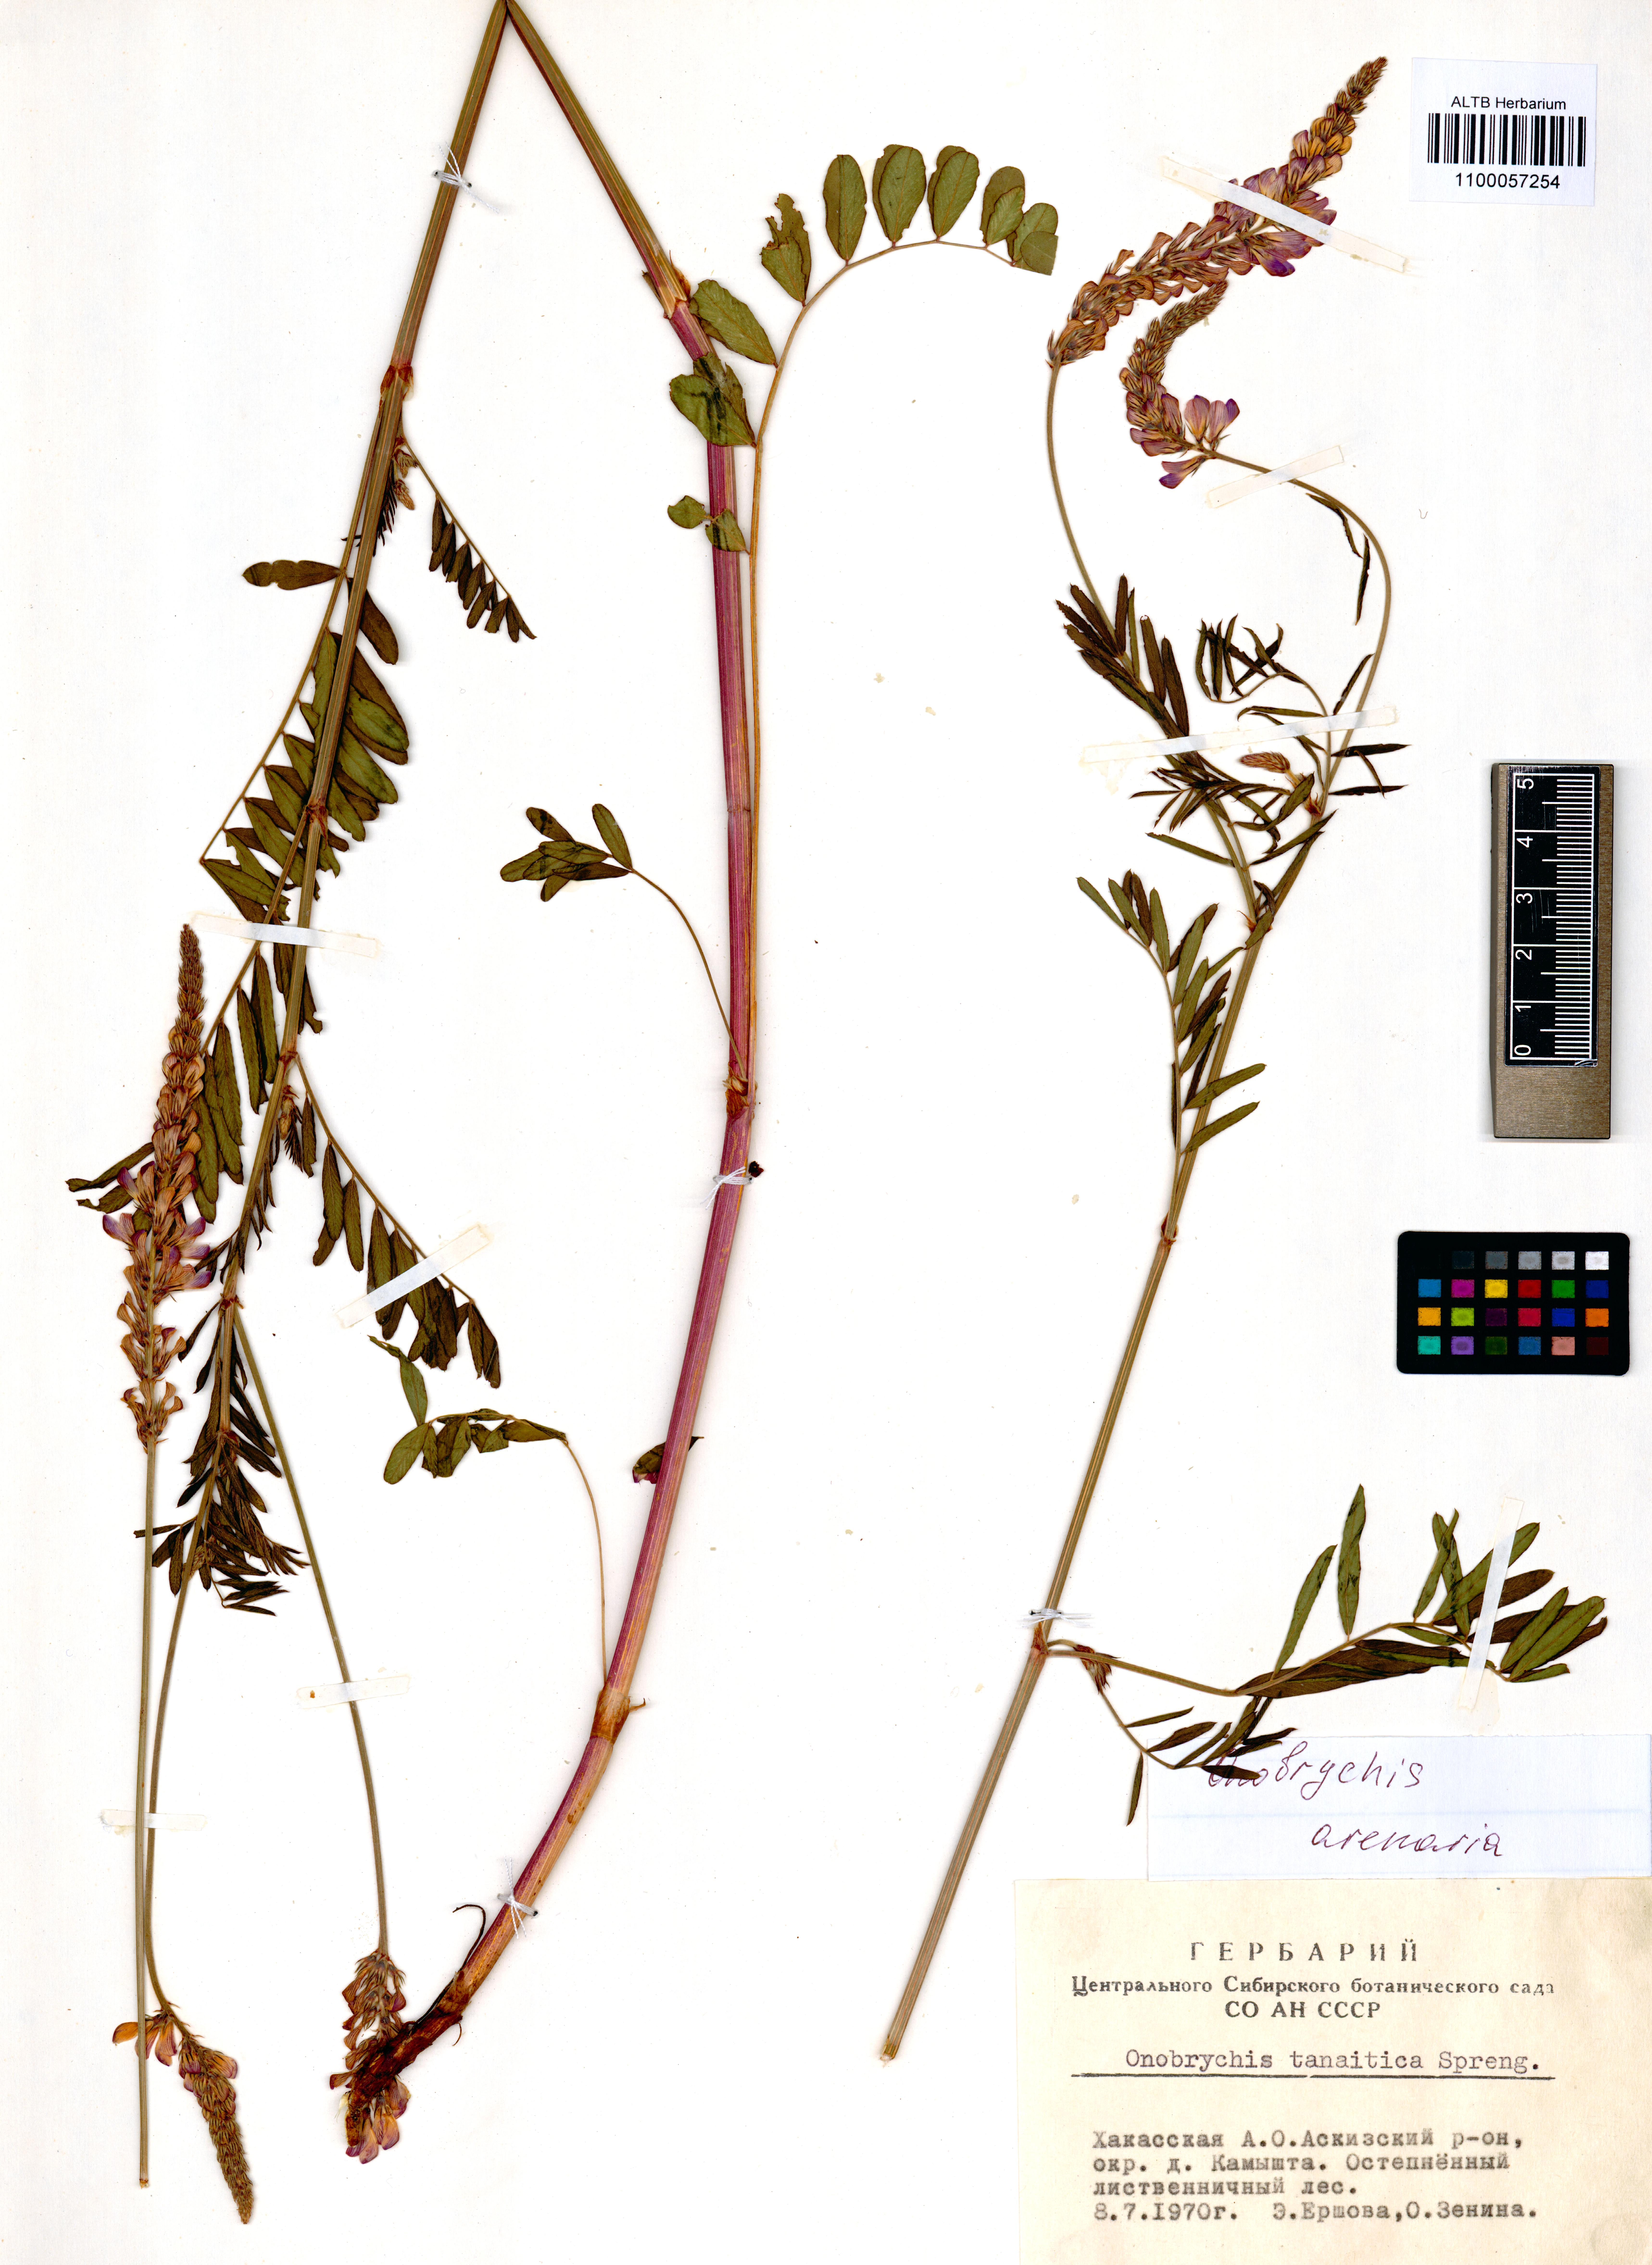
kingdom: Plantae
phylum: Tracheophyta
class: Magnoliopsida
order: Fabales
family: Fabaceae
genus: Onobrychis
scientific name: Onobrychis arenaria
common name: Sand esparcet
